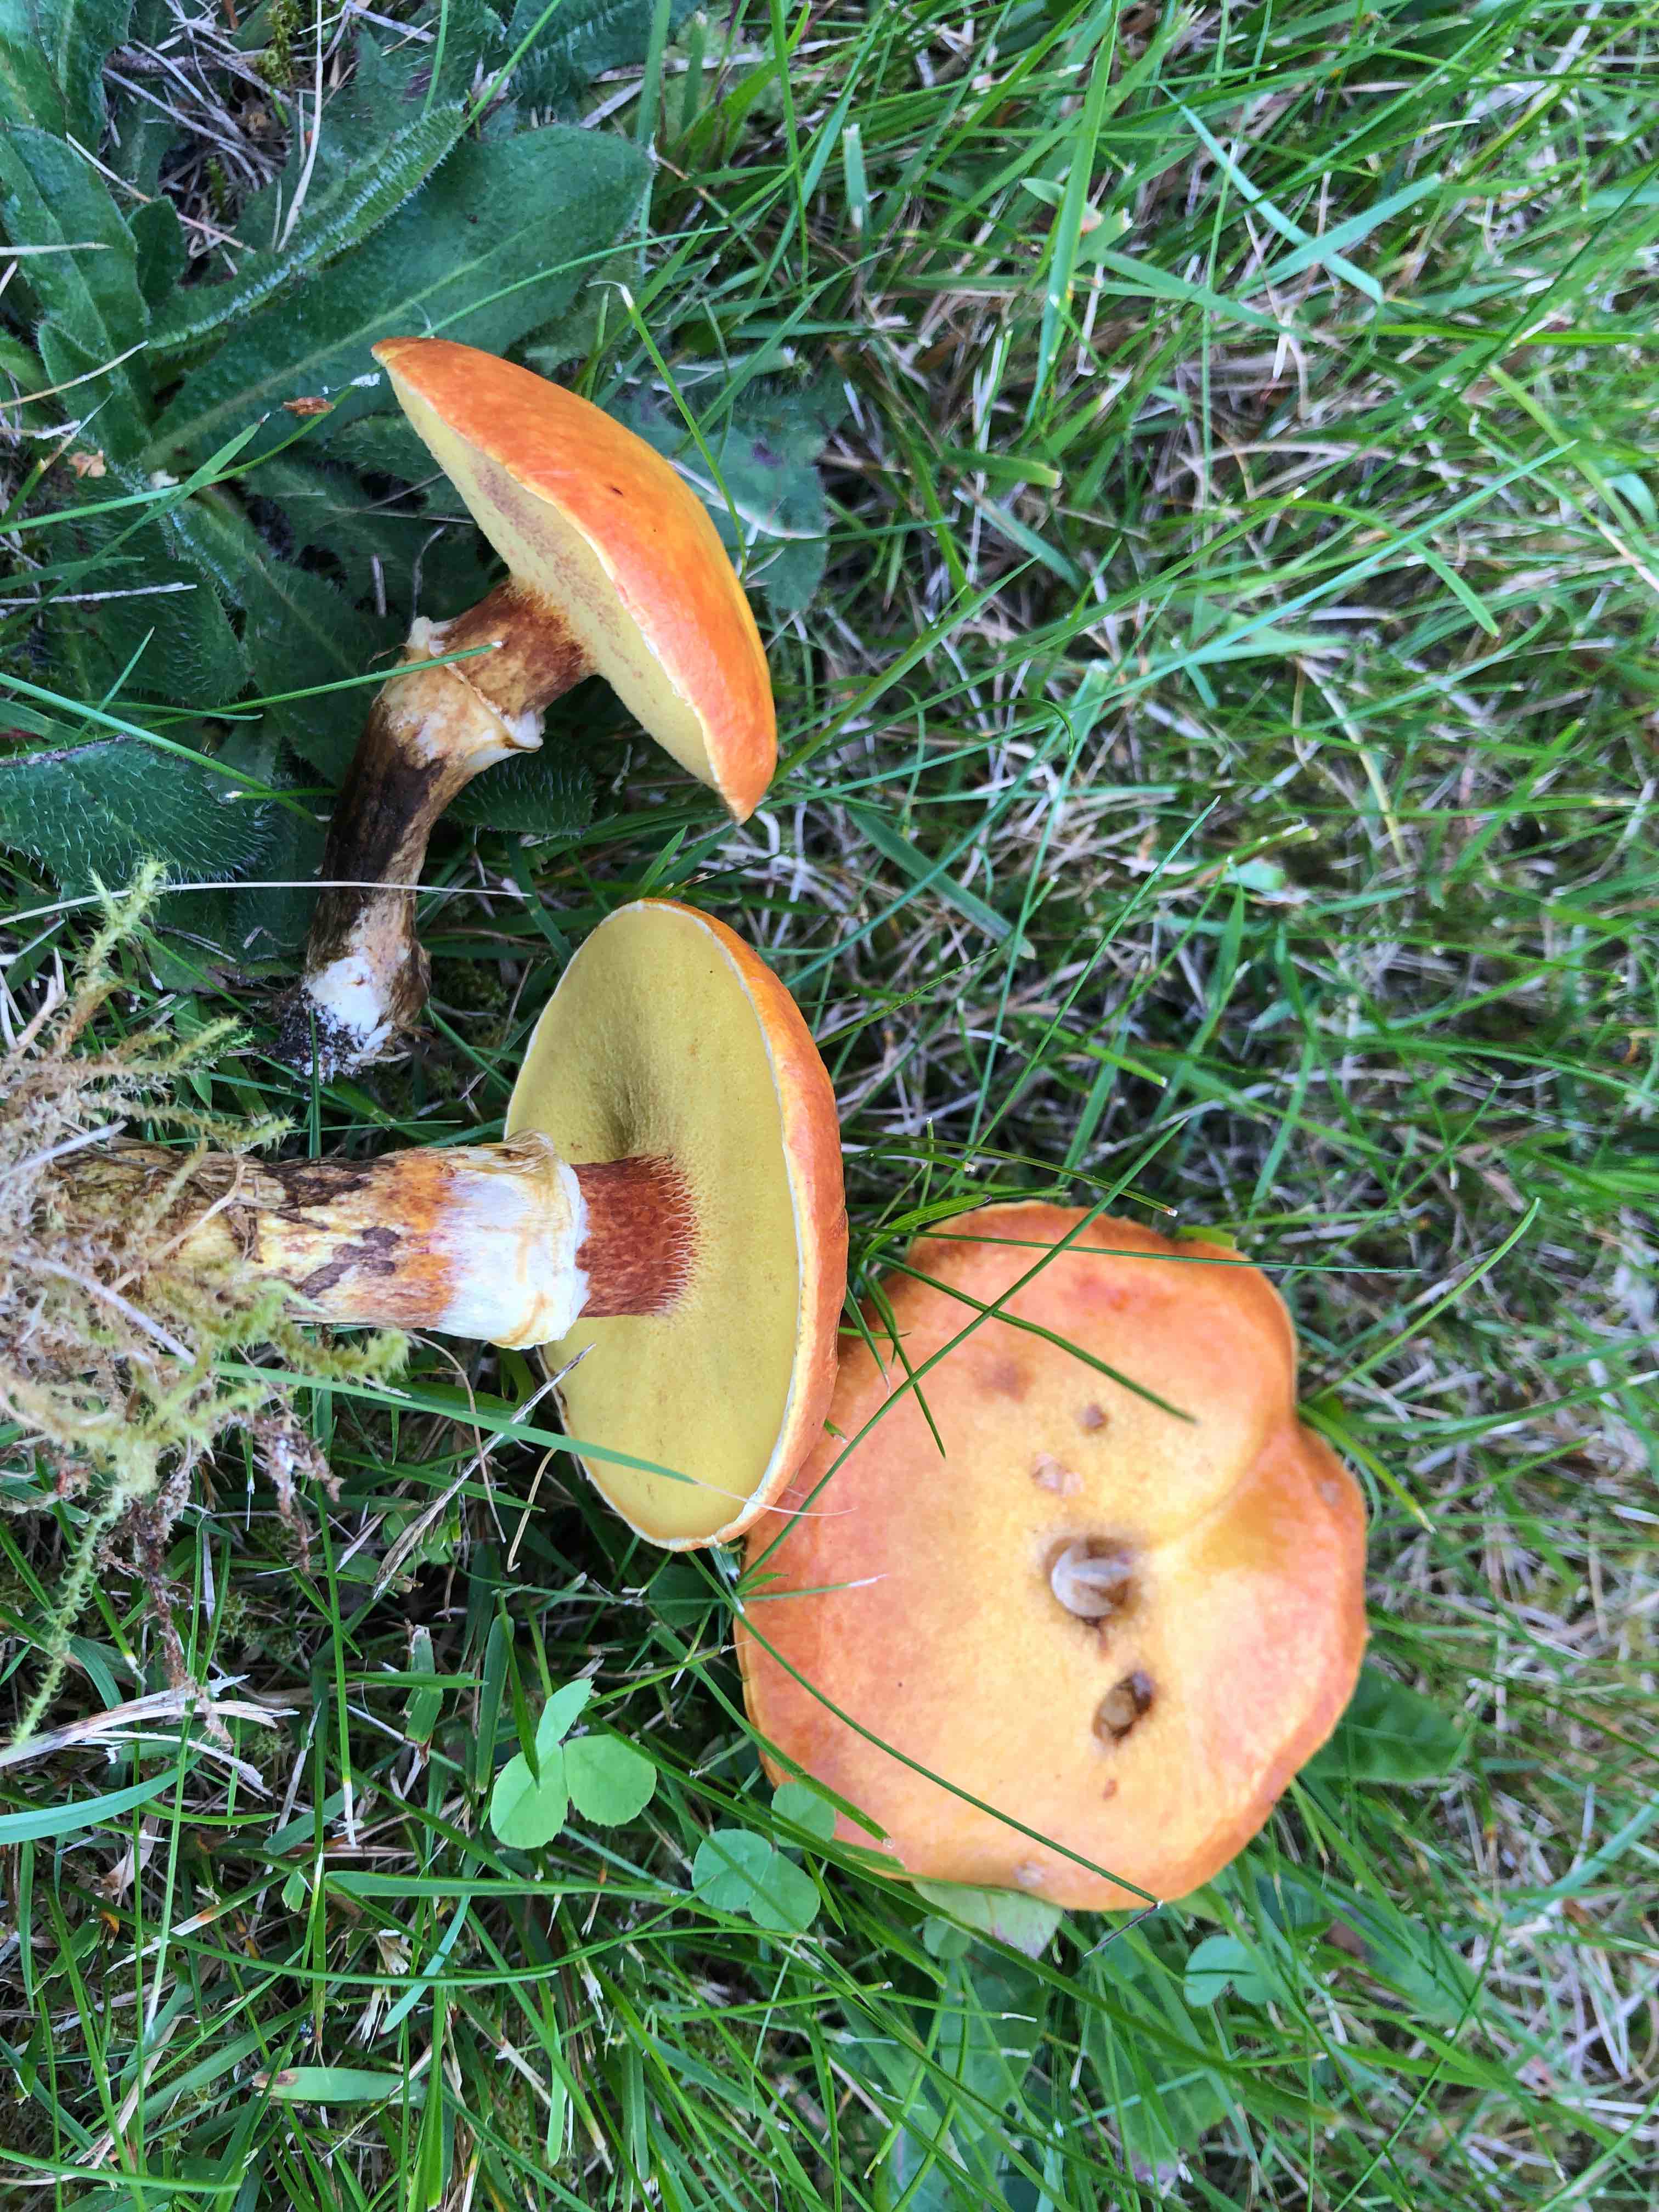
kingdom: Fungi
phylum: Basidiomycota
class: Agaricomycetes
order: Boletales
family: Suillaceae
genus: Suillus
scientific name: Suillus grevillei
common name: lærke-slimrørhat
